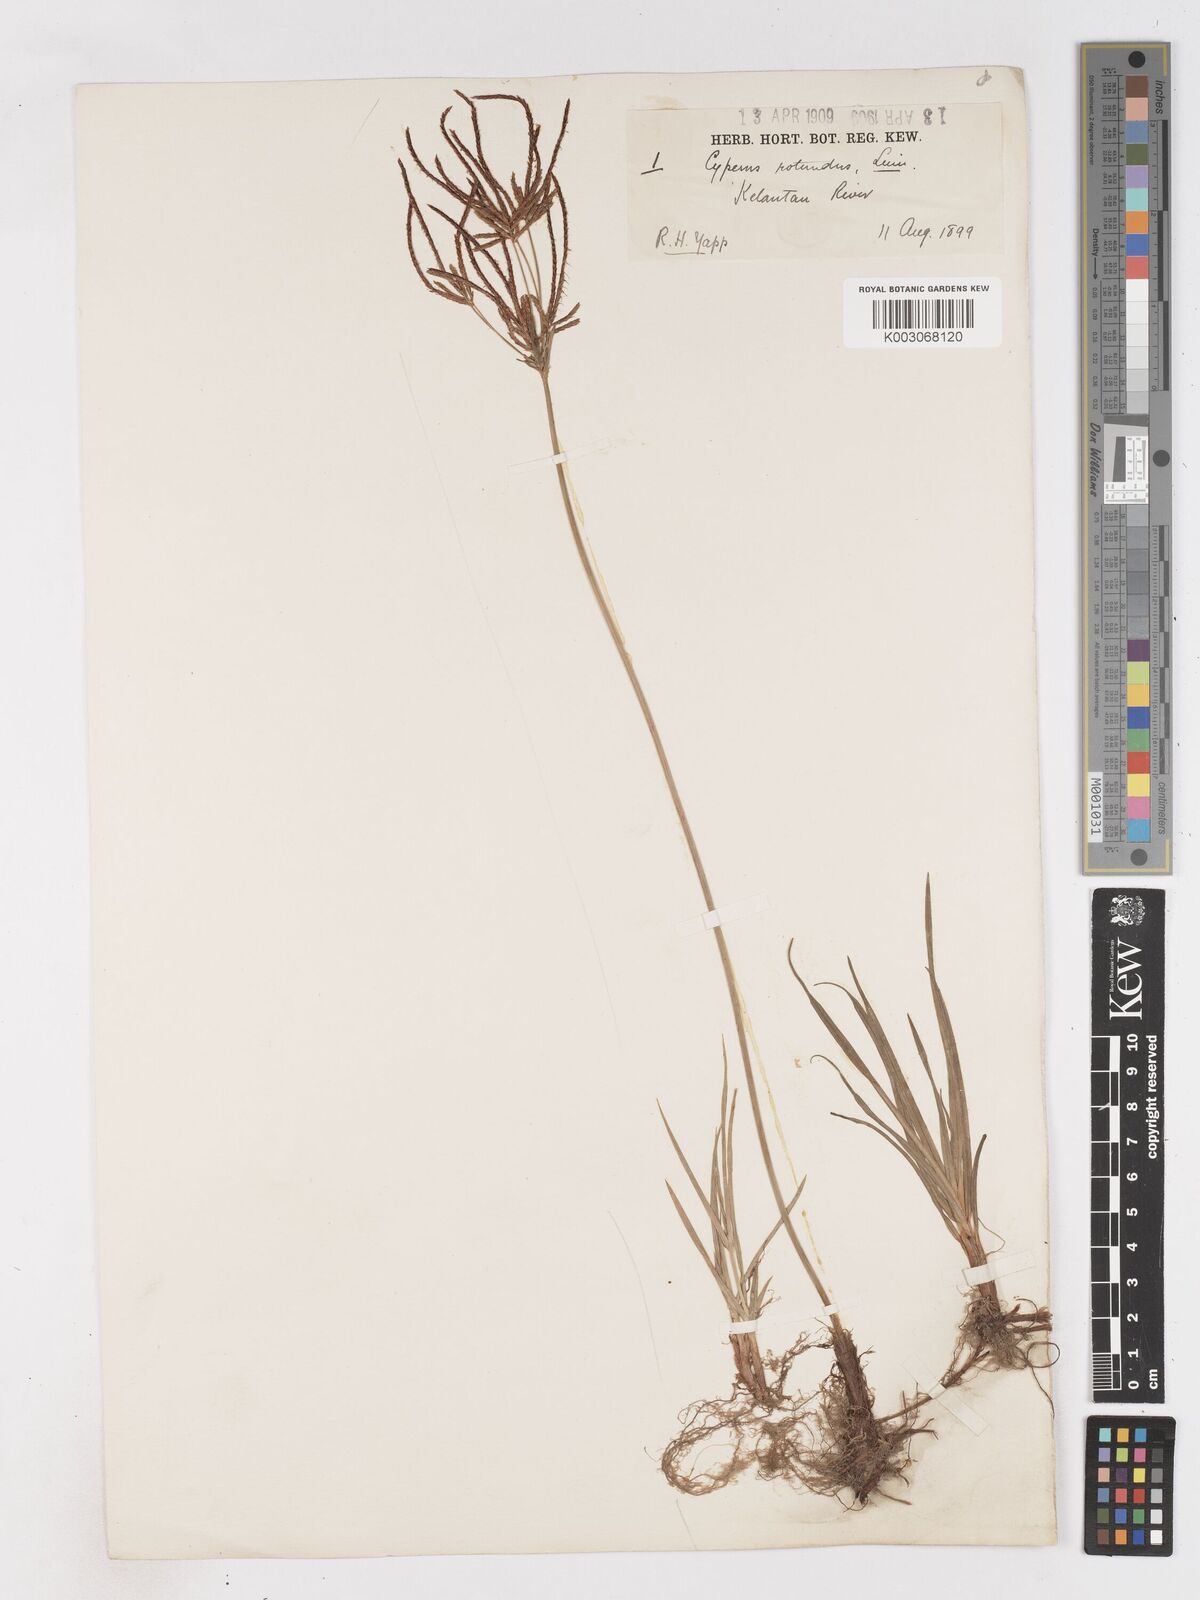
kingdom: Plantae
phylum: Tracheophyta
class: Liliopsida
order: Poales
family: Cyperaceae
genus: Cyperus
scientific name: Cyperus rotundus
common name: Nutgrass
